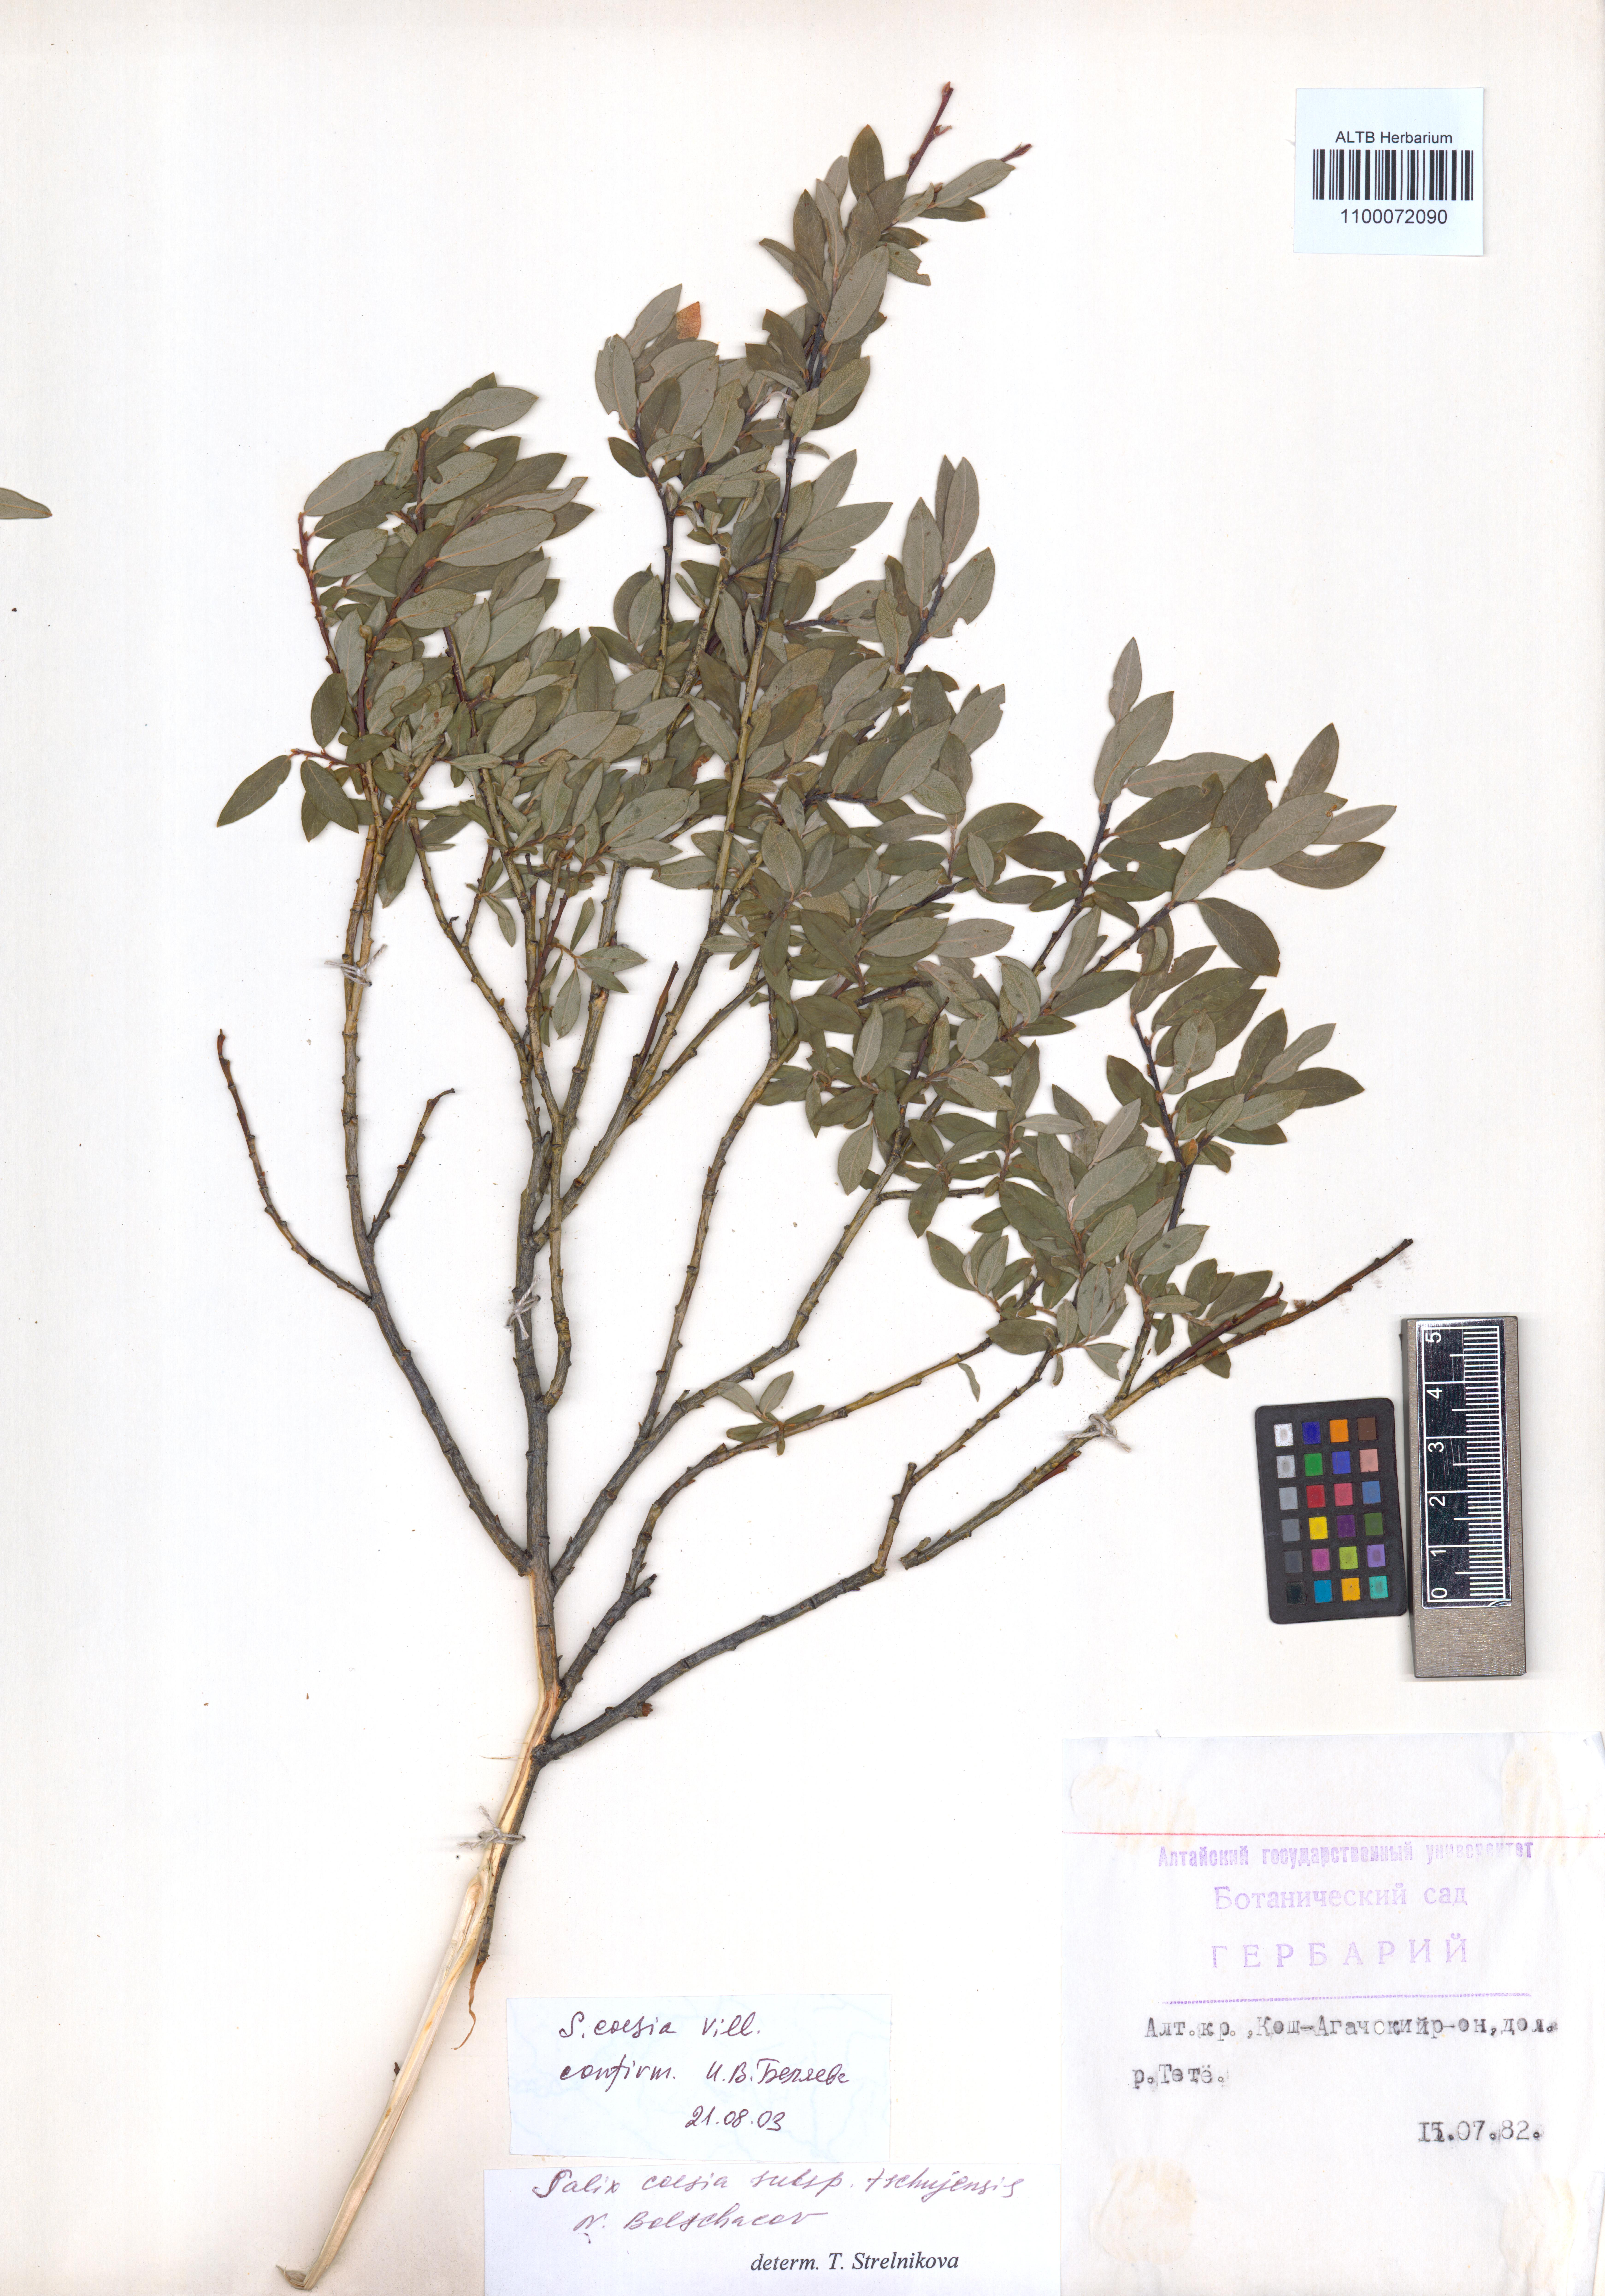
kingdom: Plantae
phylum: Tracheophyta
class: Magnoliopsida
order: Malpighiales
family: Salicaceae
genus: Salix
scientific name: Salix caesia
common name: Blue willow
